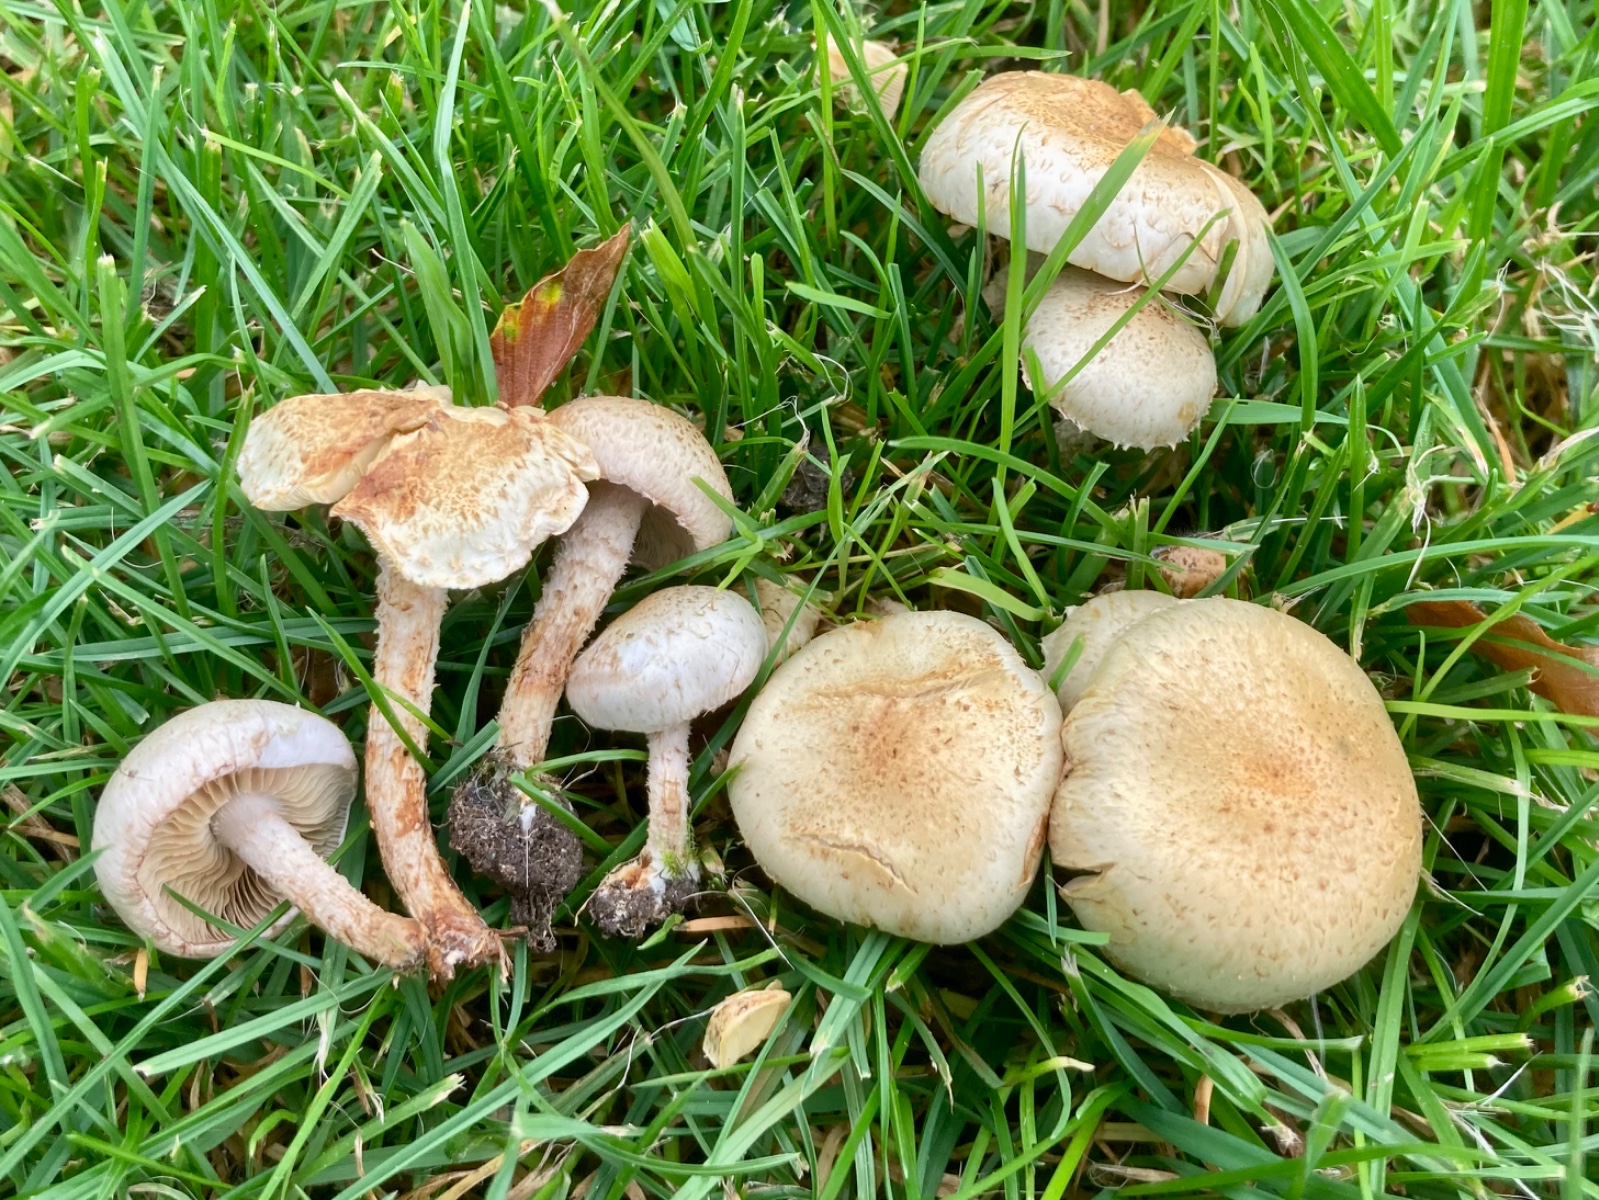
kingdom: Fungi
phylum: Basidiomycota
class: Agaricomycetes
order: Agaricales
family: Strophariaceae
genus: Pholiota
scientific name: Pholiota gummosa
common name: grøngul skælhat
